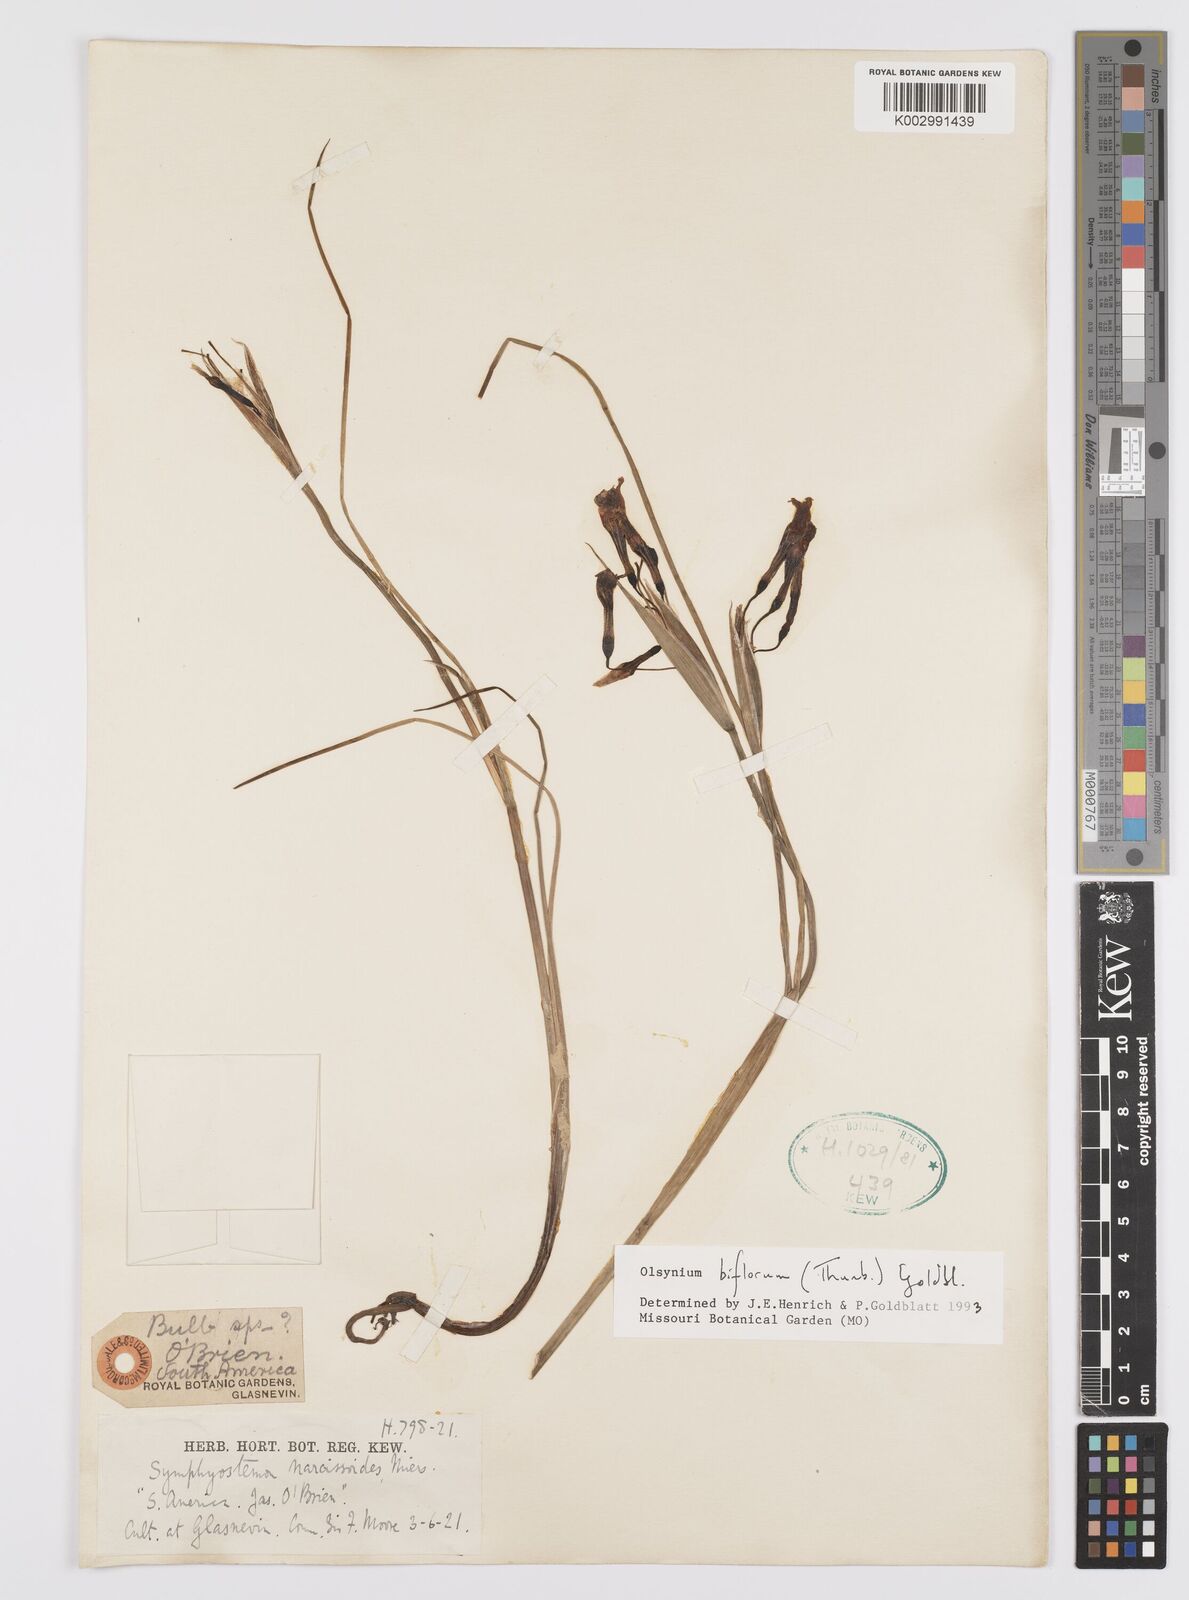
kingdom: Plantae
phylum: Tracheophyta
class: Liliopsida
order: Asparagales
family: Iridaceae
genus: Olsynium
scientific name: Olsynium biflorum
